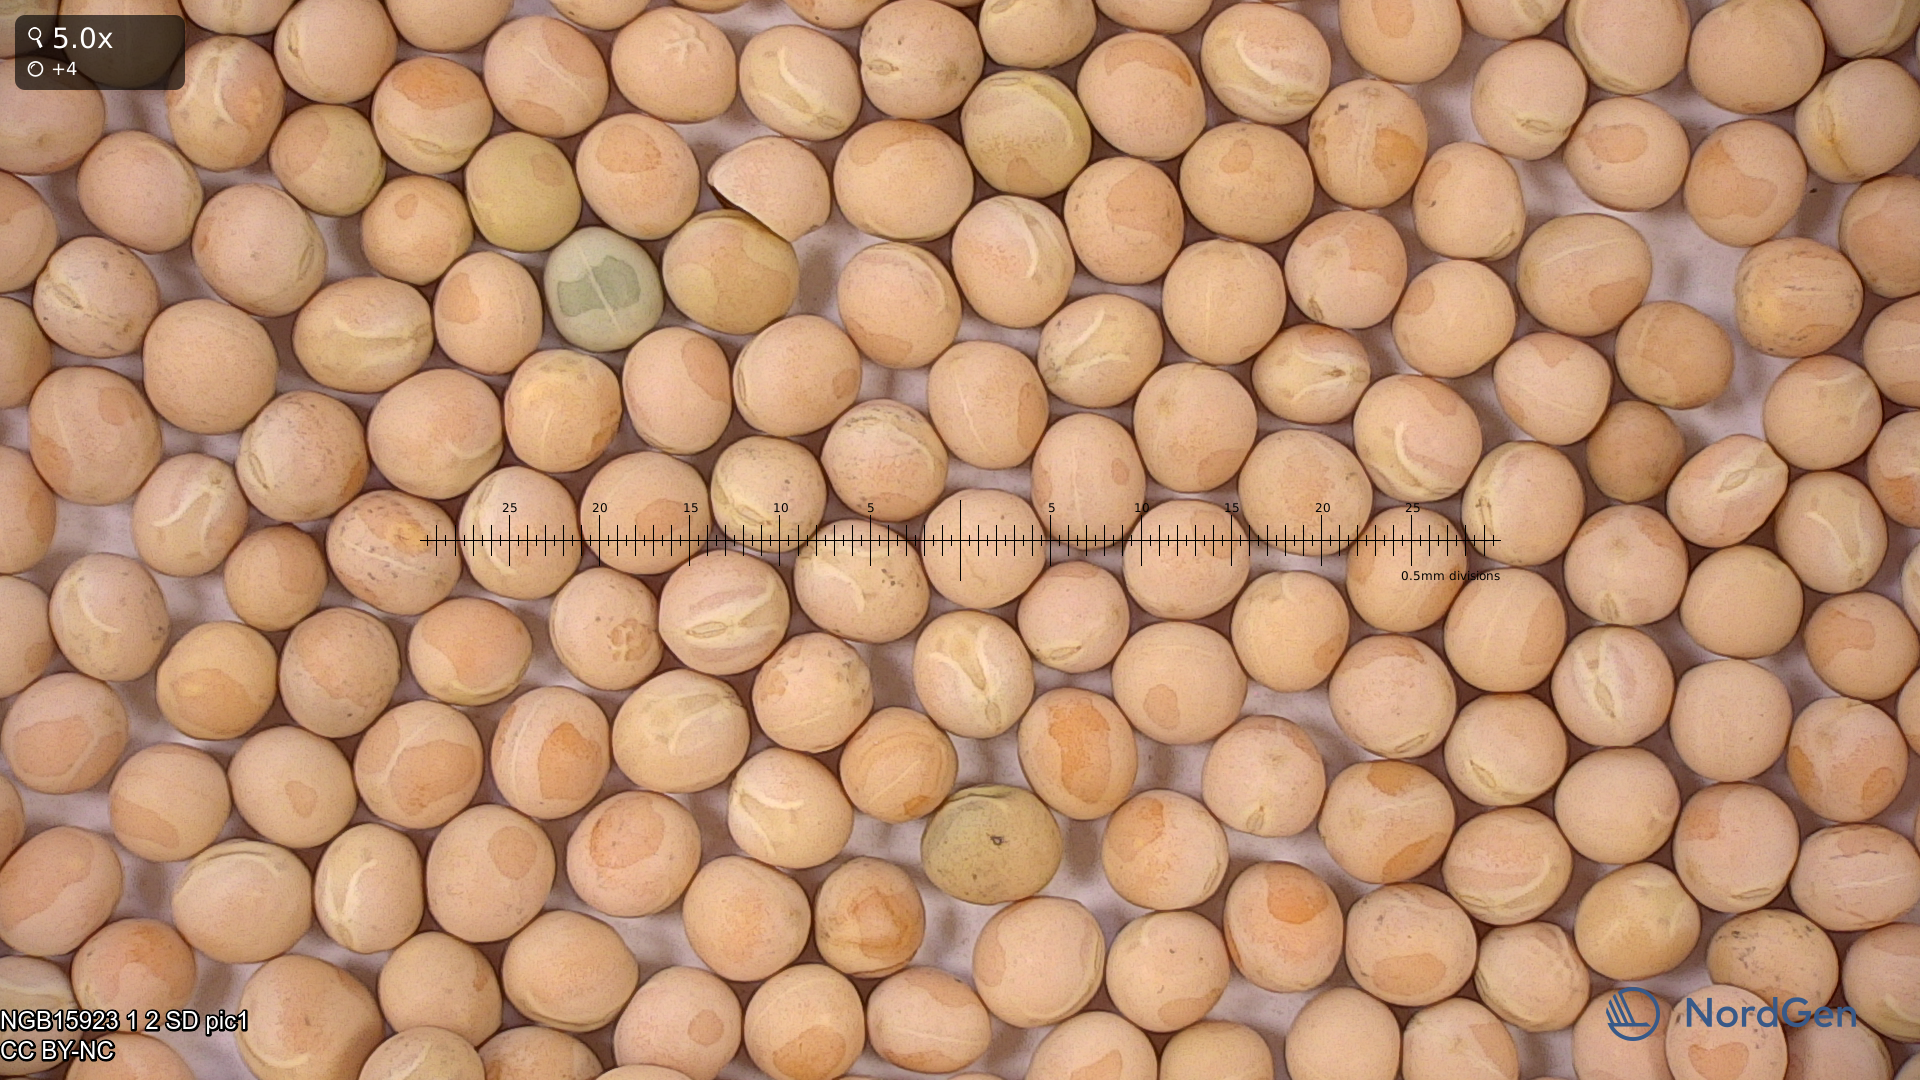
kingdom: Plantae
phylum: Tracheophyta
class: Magnoliopsida
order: Fabales
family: Fabaceae
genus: Lathyrus
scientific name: Lathyrus oleraceus
